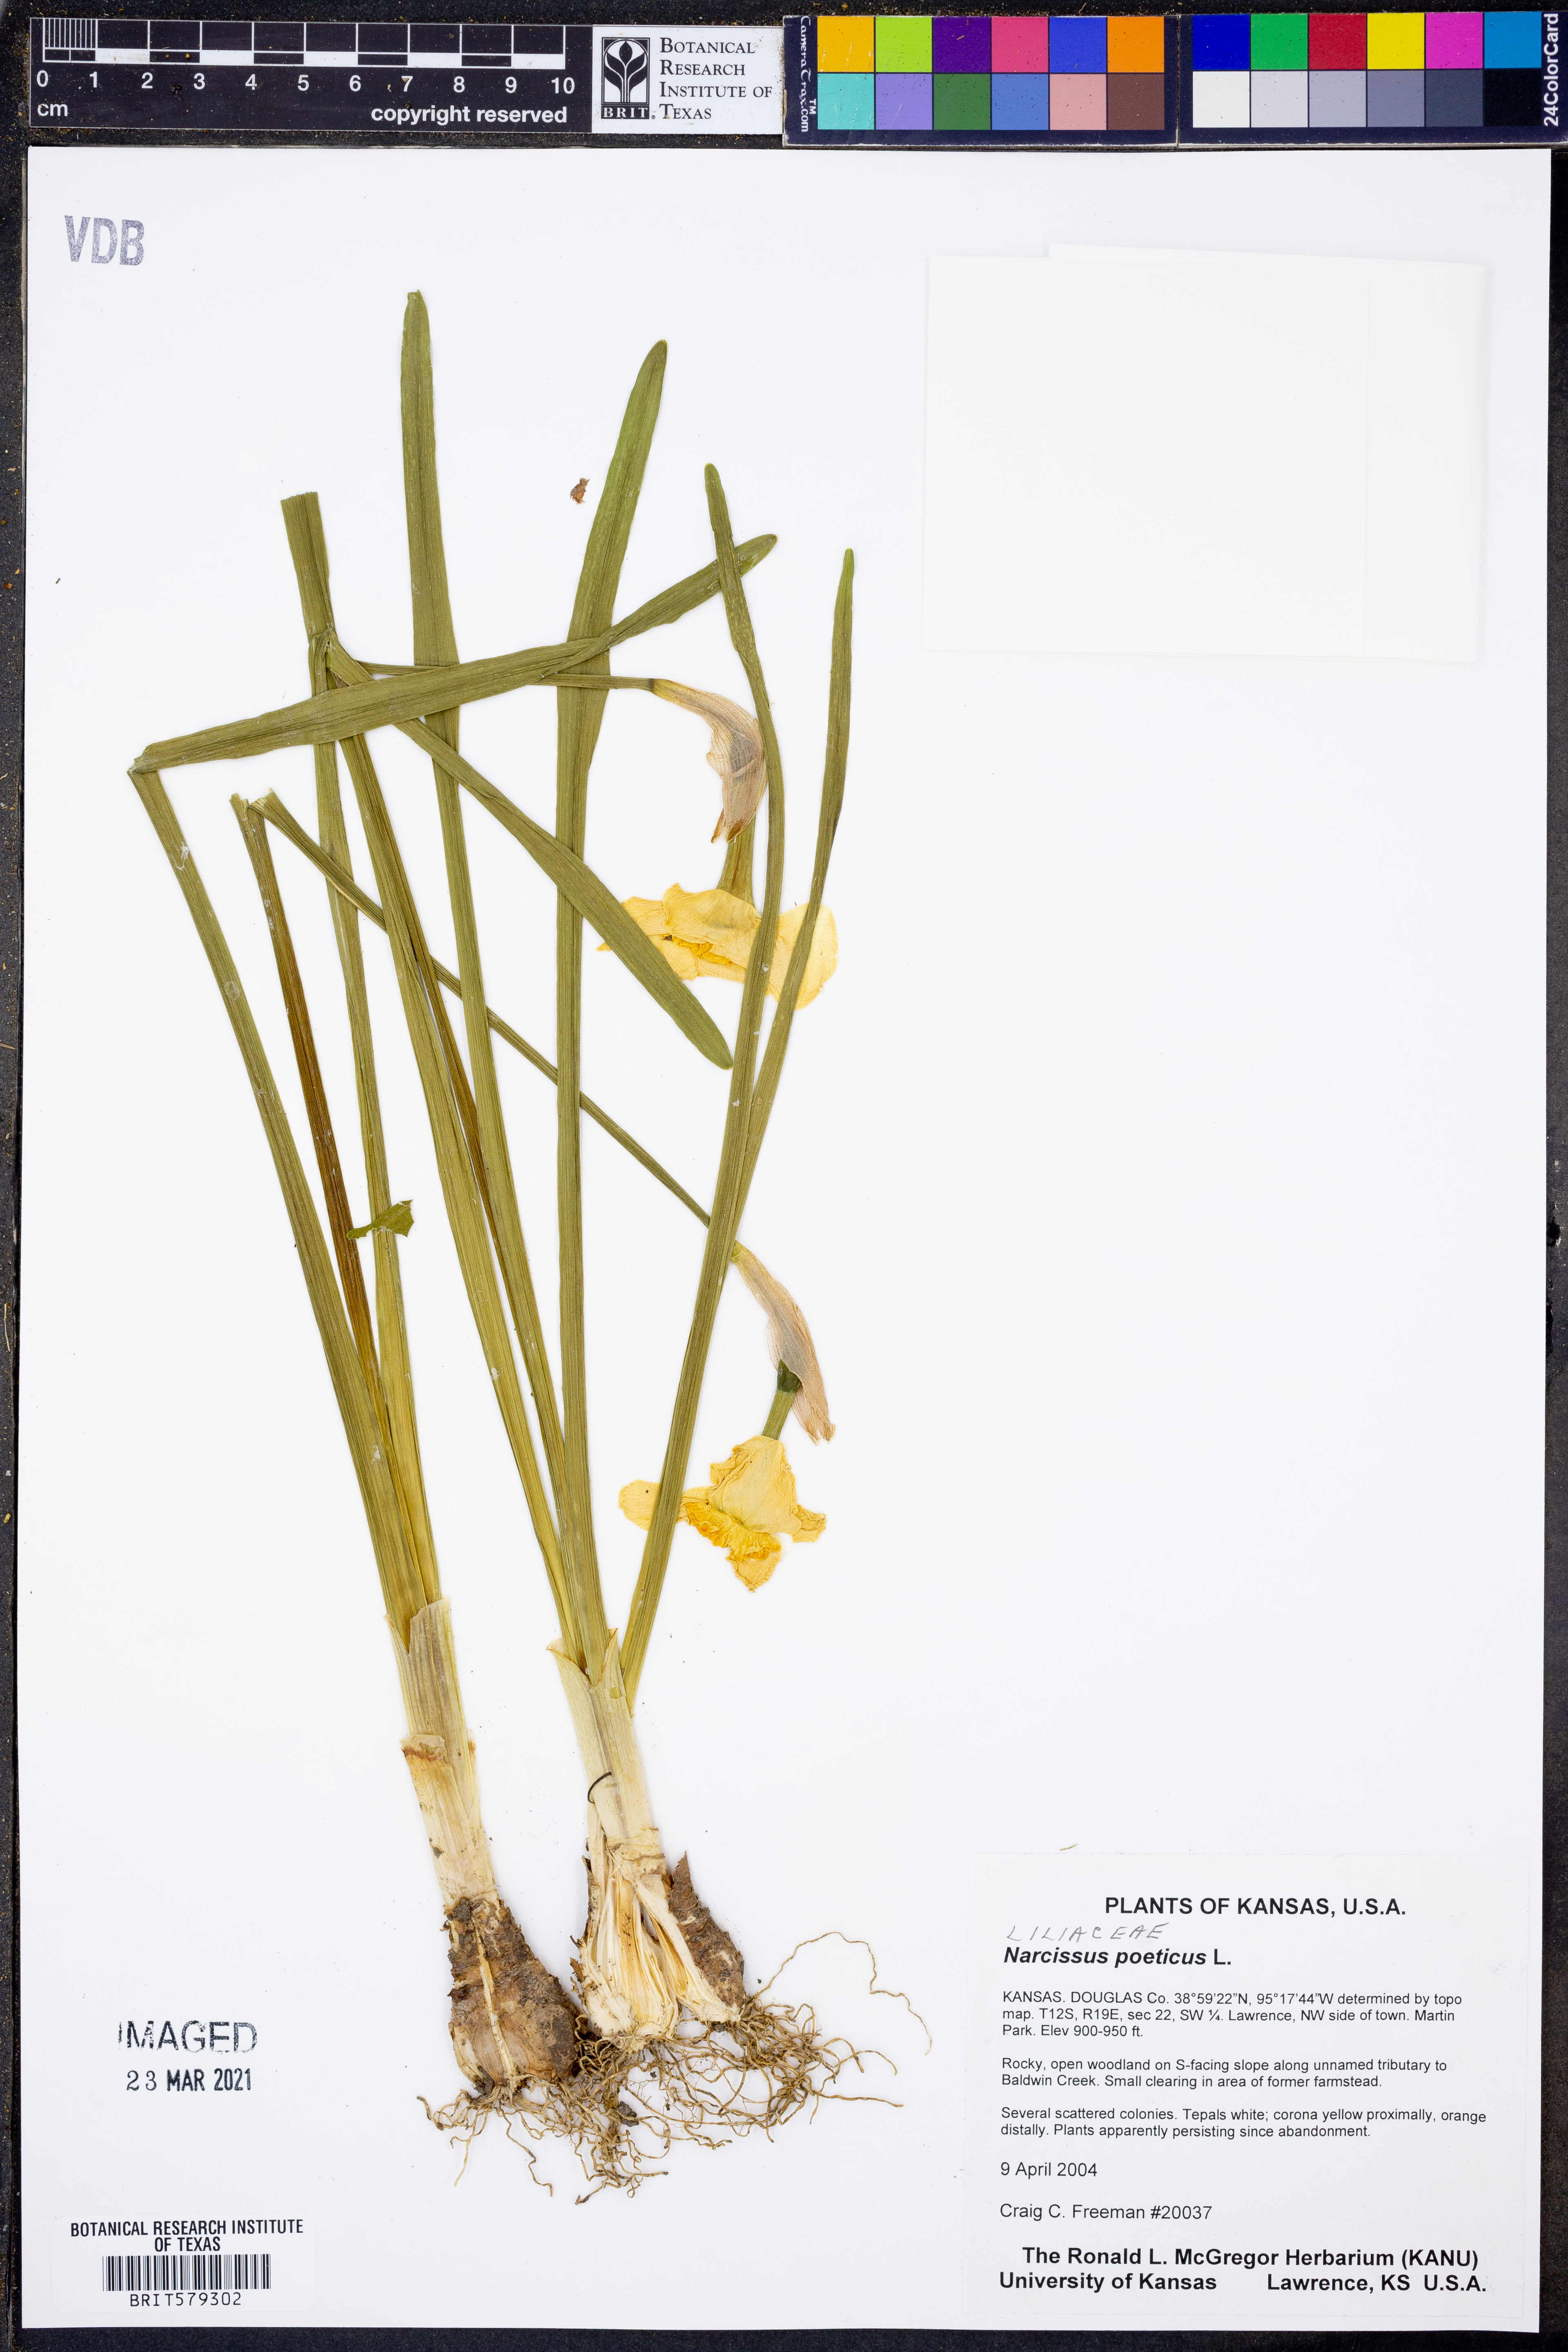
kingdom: Plantae
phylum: Tracheophyta
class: Liliopsida
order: Asparagales
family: Amaryllidaceae
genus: Narcissus
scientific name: Narcissus poeticus
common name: Pheasant's-eye daffodil
